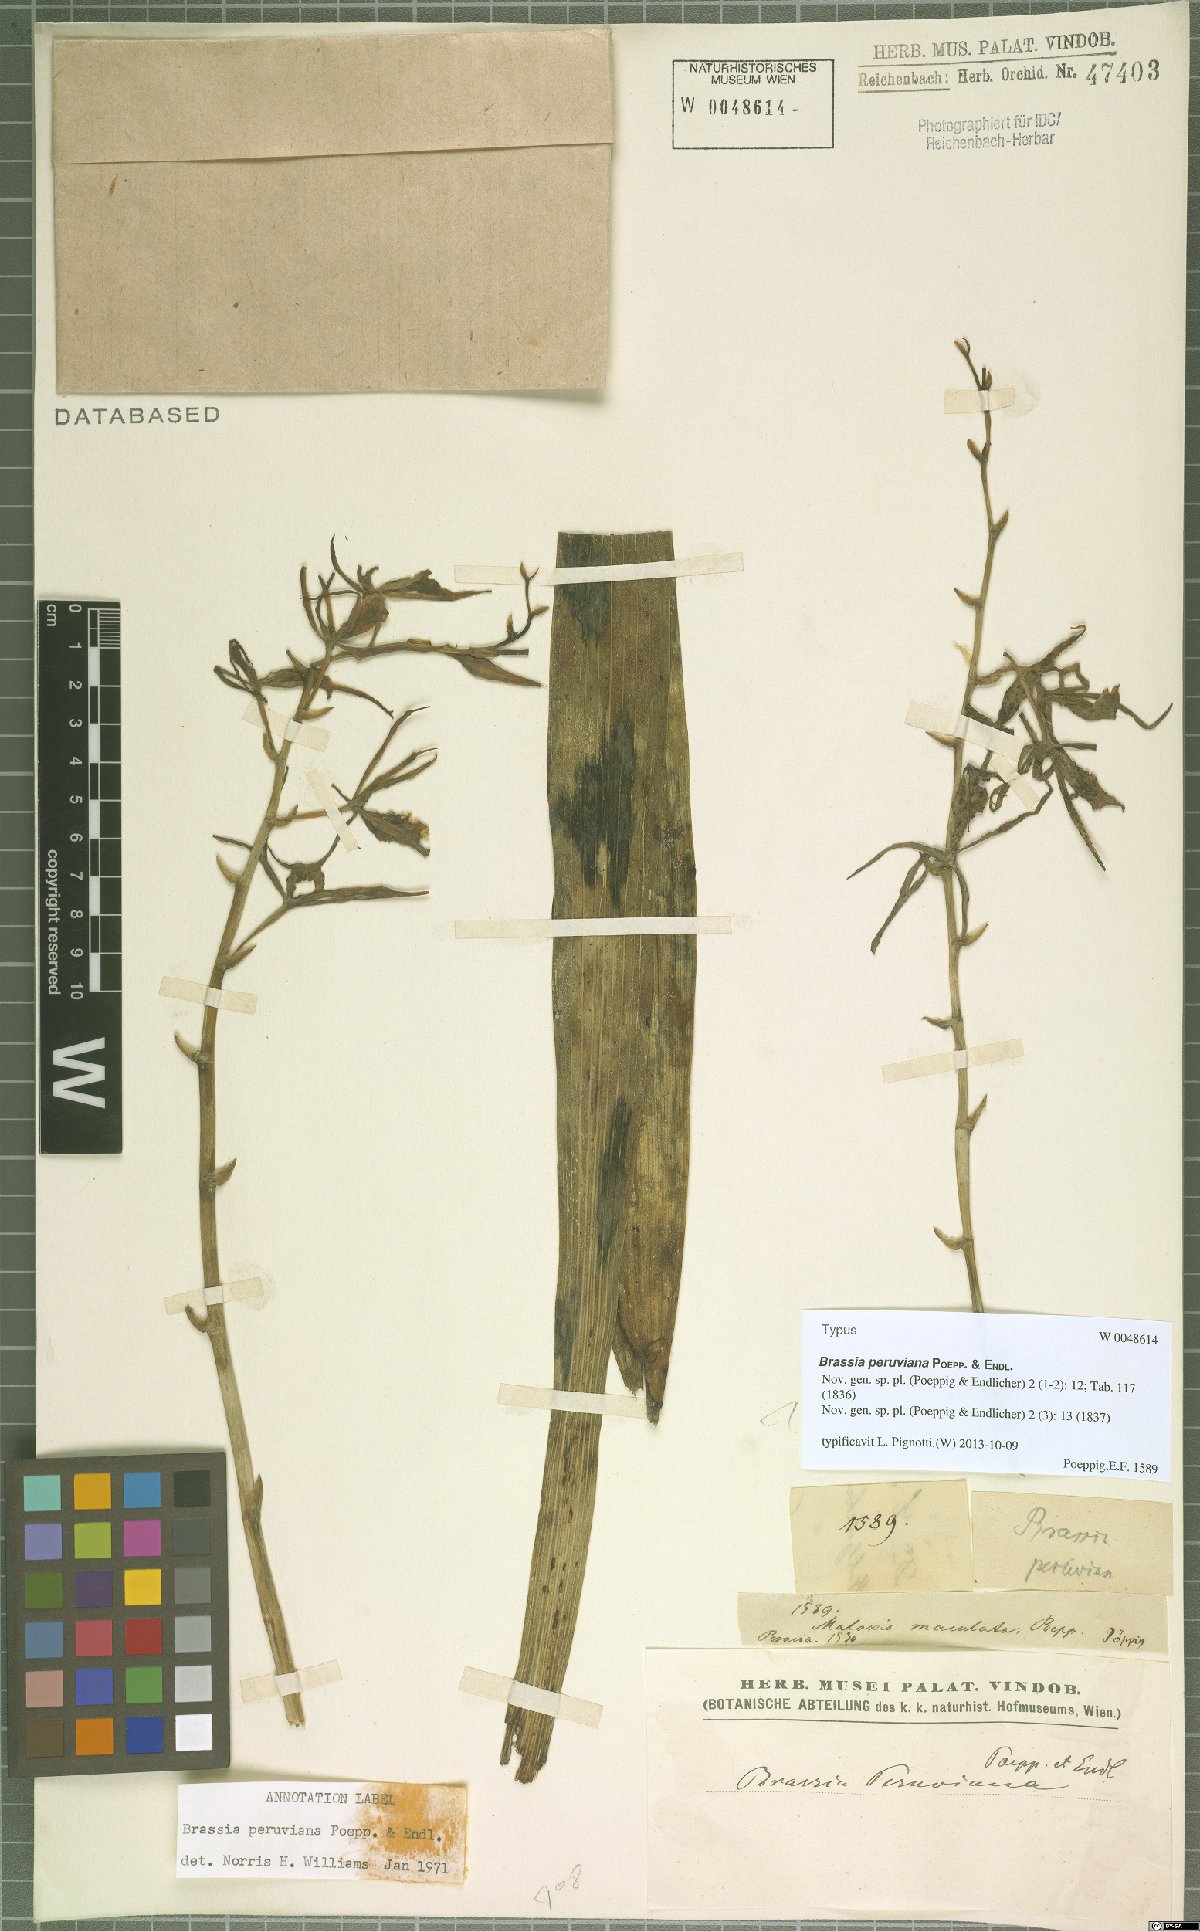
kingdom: Plantae
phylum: Tracheophyta
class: Liliopsida
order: Asparagales
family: Orchidaceae
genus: Brassia
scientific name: Brassia peruviana
